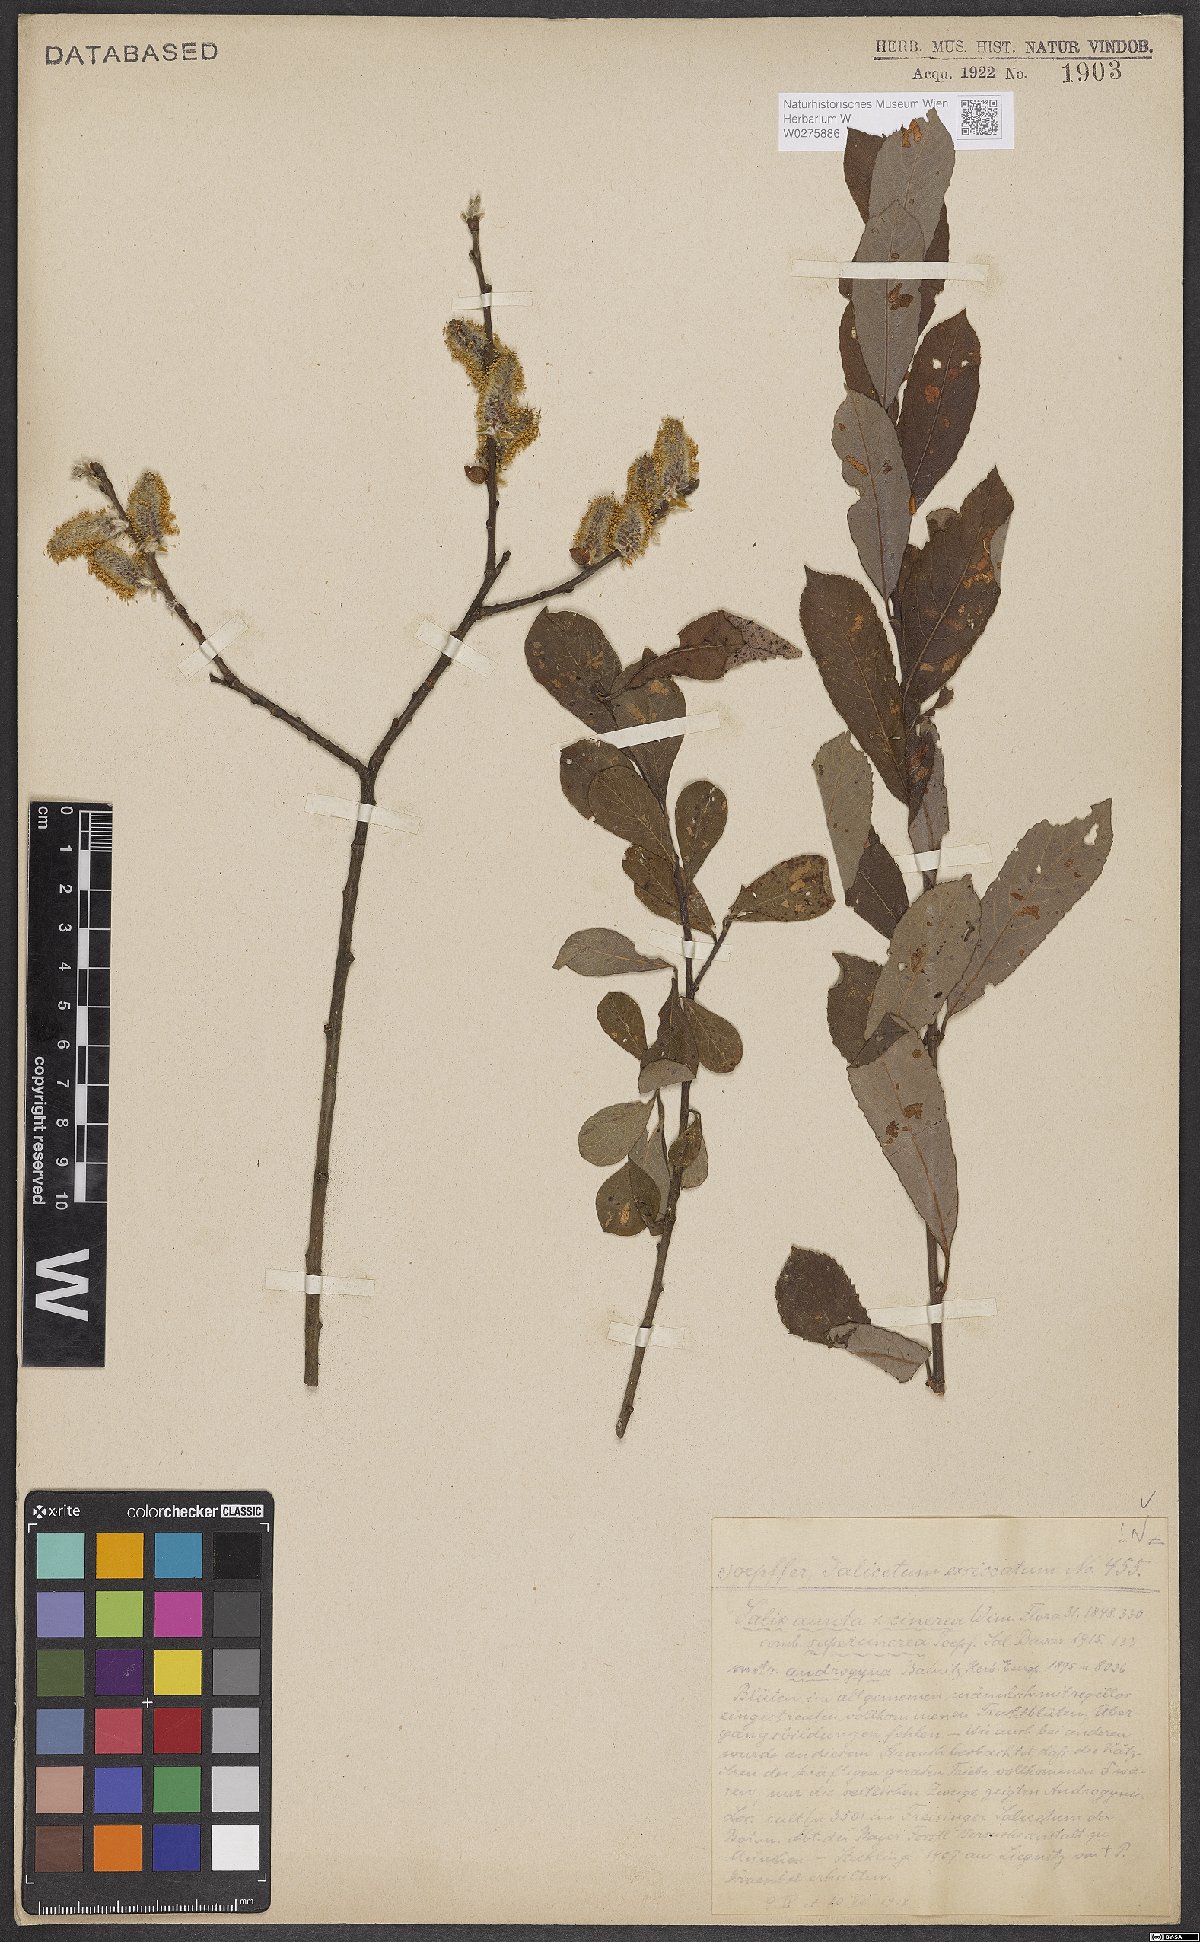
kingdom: Plantae
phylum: Tracheophyta
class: Magnoliopsida
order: Malpighiales
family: Salicaceae
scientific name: Salicaceae
